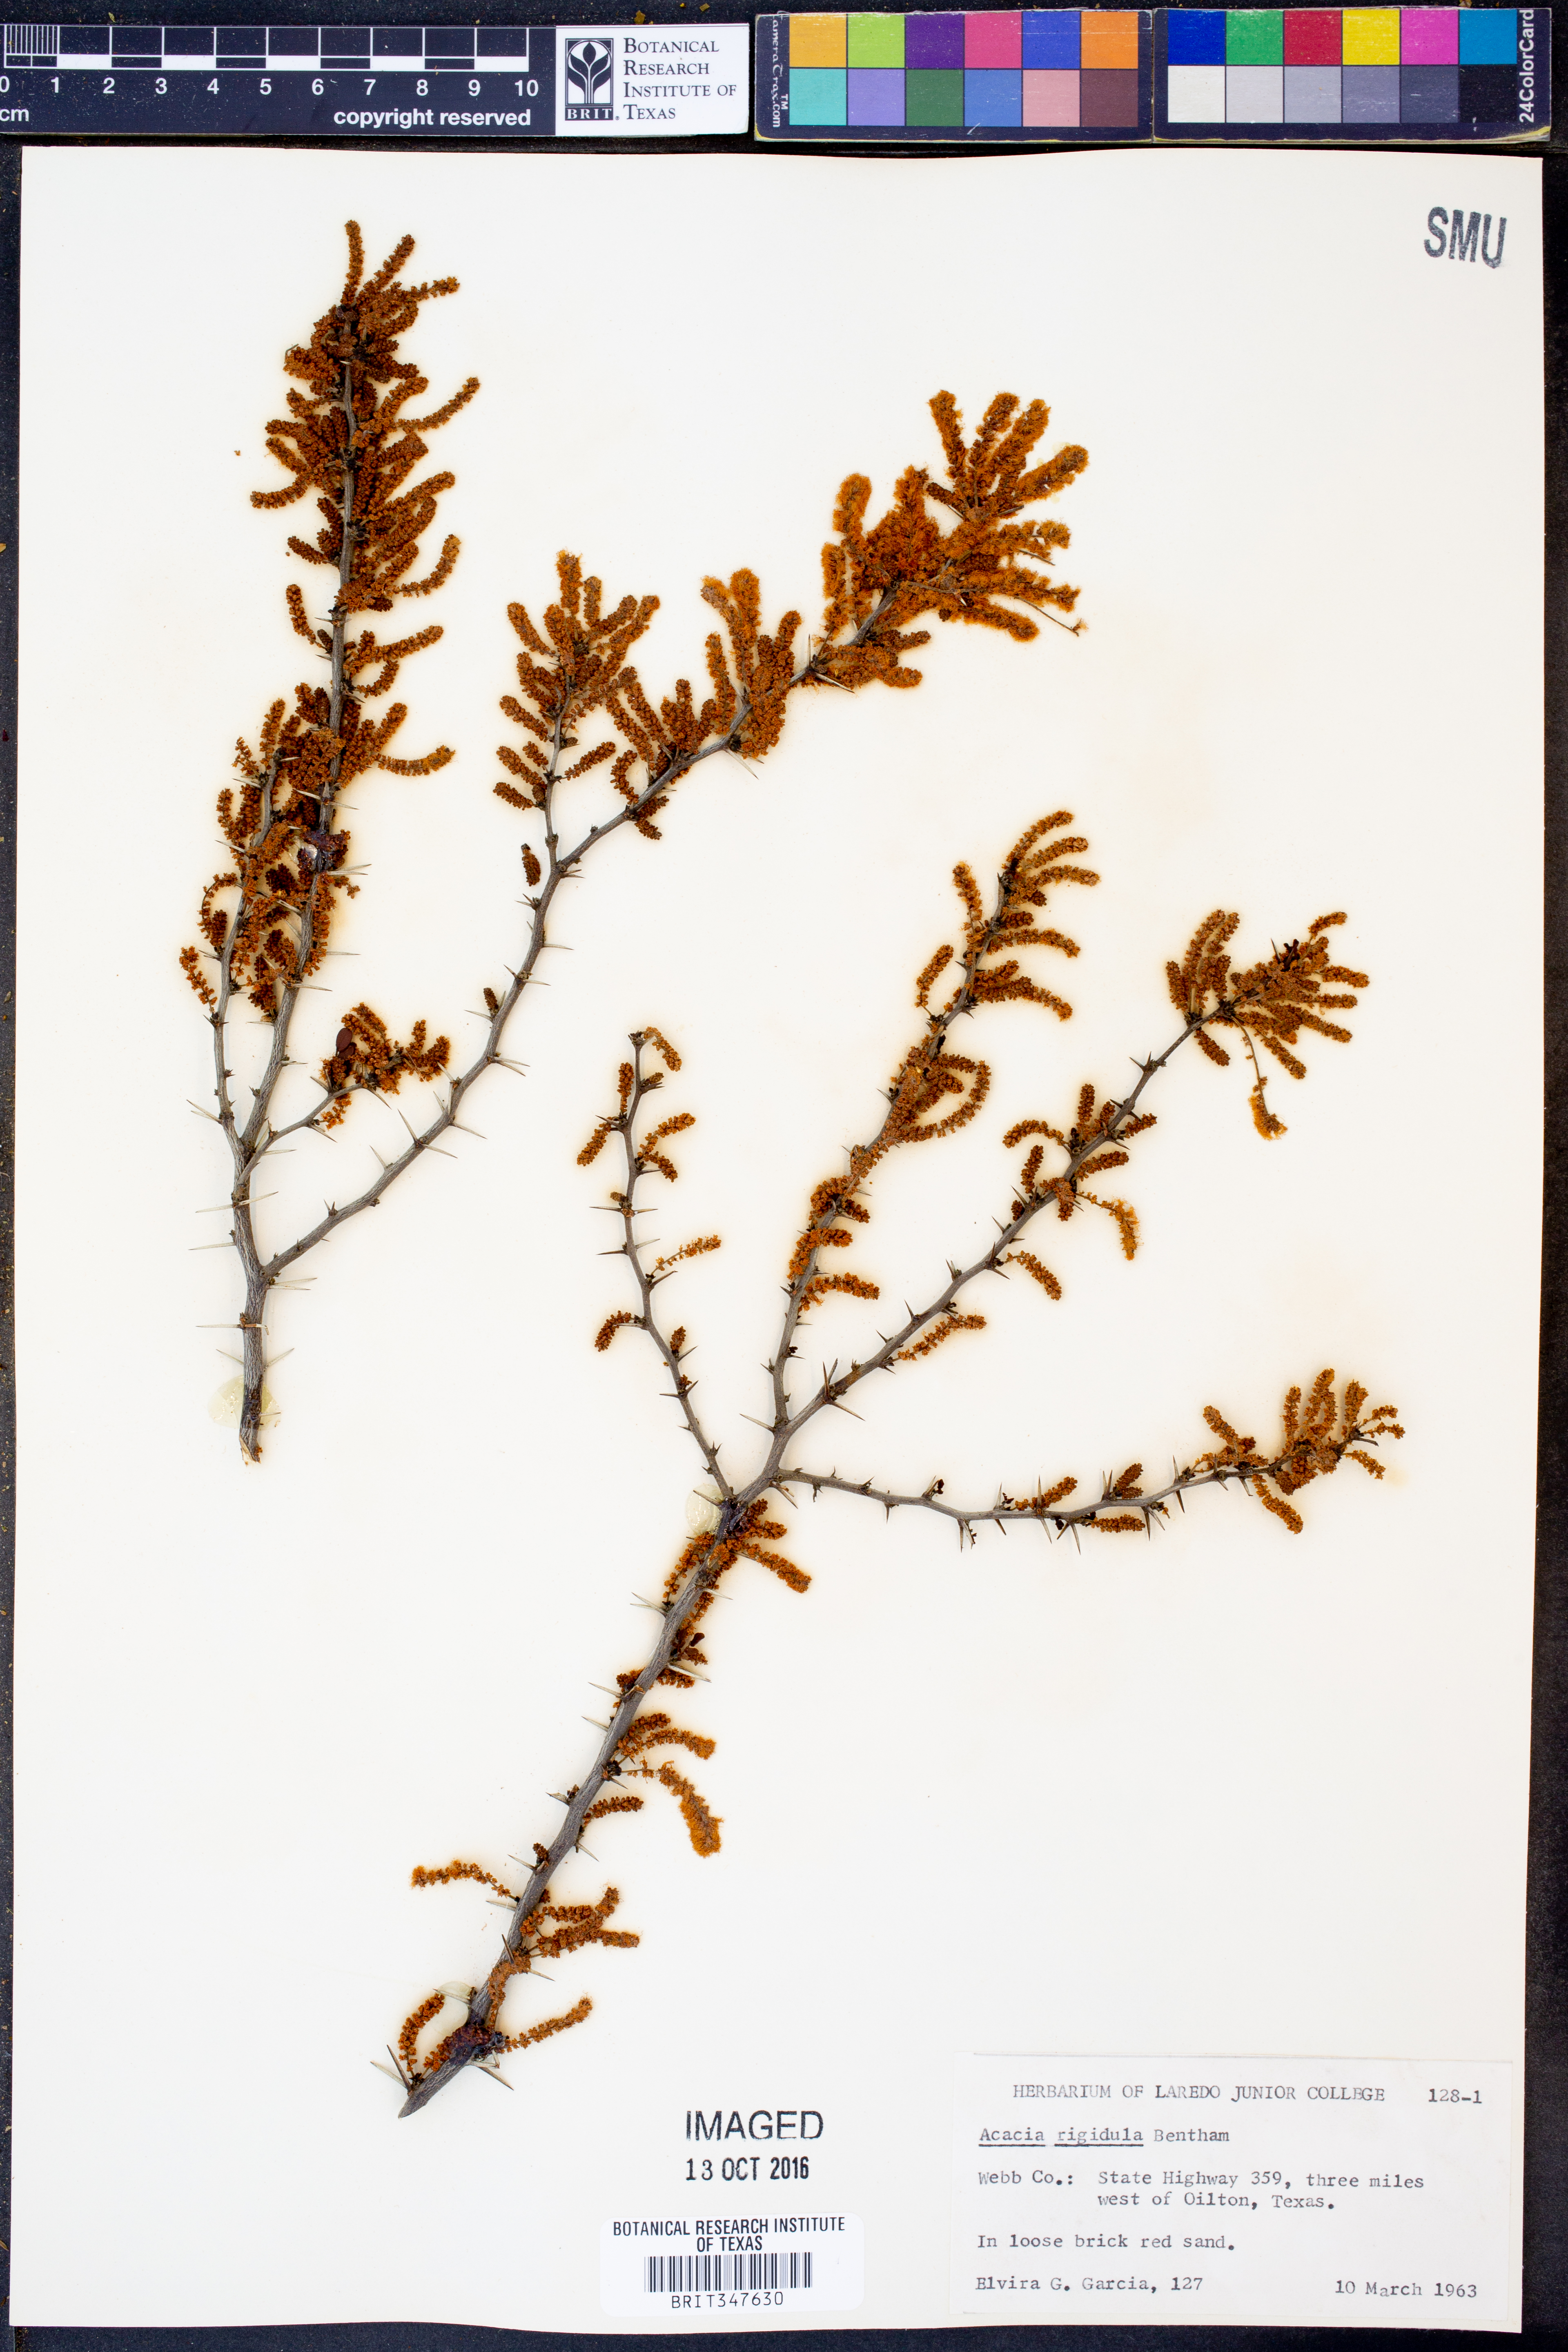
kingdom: Plantae
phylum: Tracheophyta
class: Magnoliopsida
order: Fabales
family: Fabaceae
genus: Vachellia
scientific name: Vachellia rigidula
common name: Blackbrush
